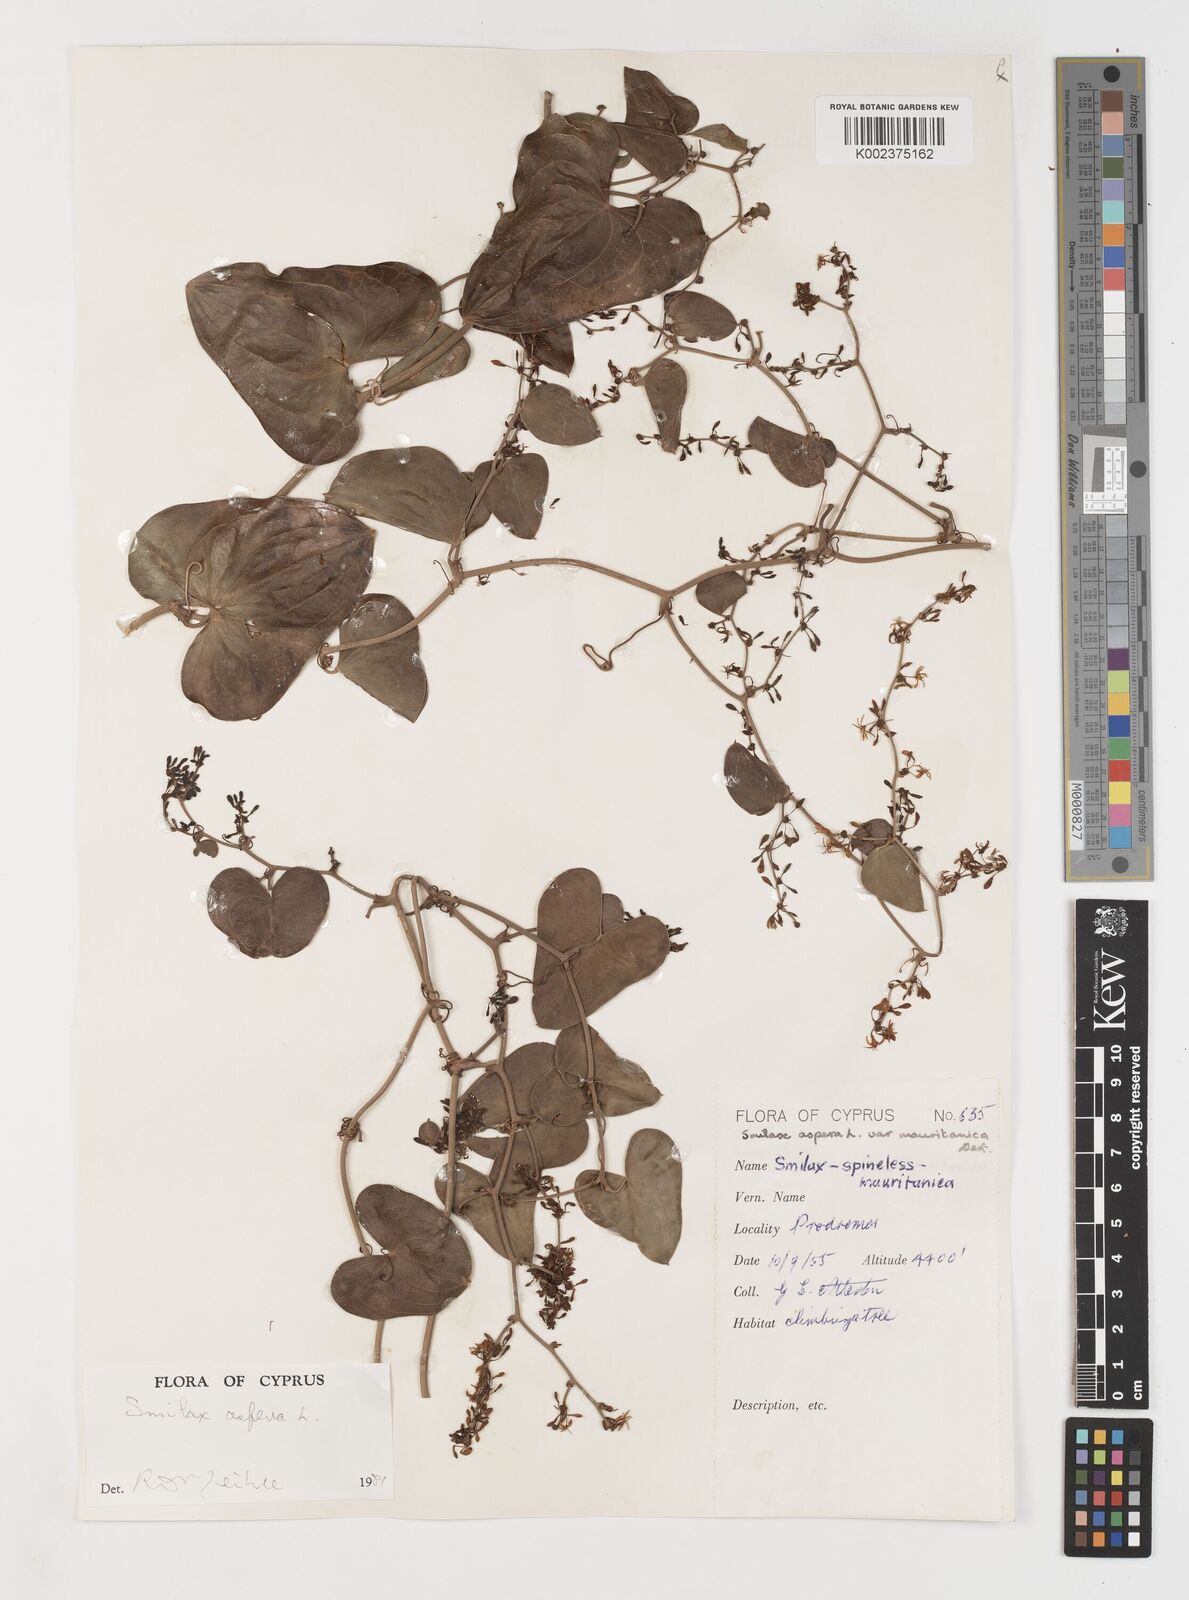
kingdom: Plantae
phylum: Tracheophyta
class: Liliopsida
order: Liliales
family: Smilacaceae
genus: Smilax
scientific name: Smilax aspera
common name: Common smilax
